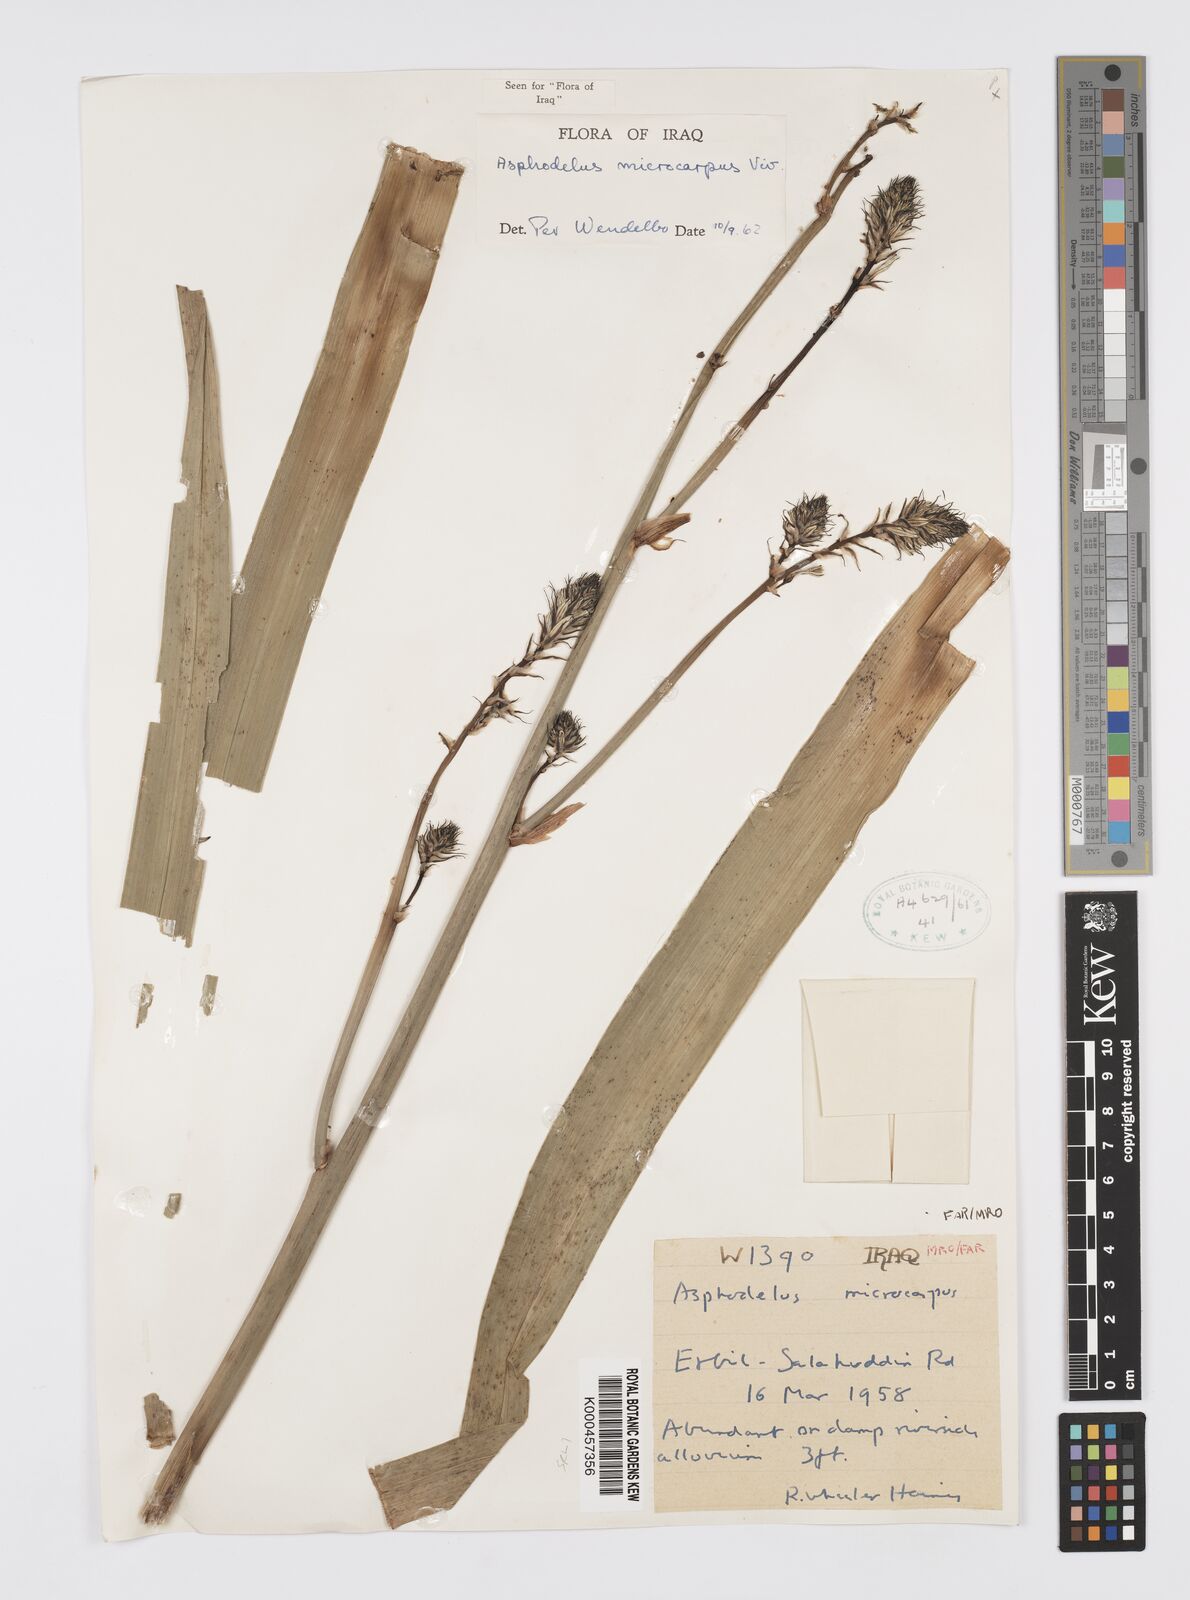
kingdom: Plantae
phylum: Tracheophyta
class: Liliopsida
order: Asparagales
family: Asphodelaceae
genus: Asphodelus
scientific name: Asphodelus aestivus
